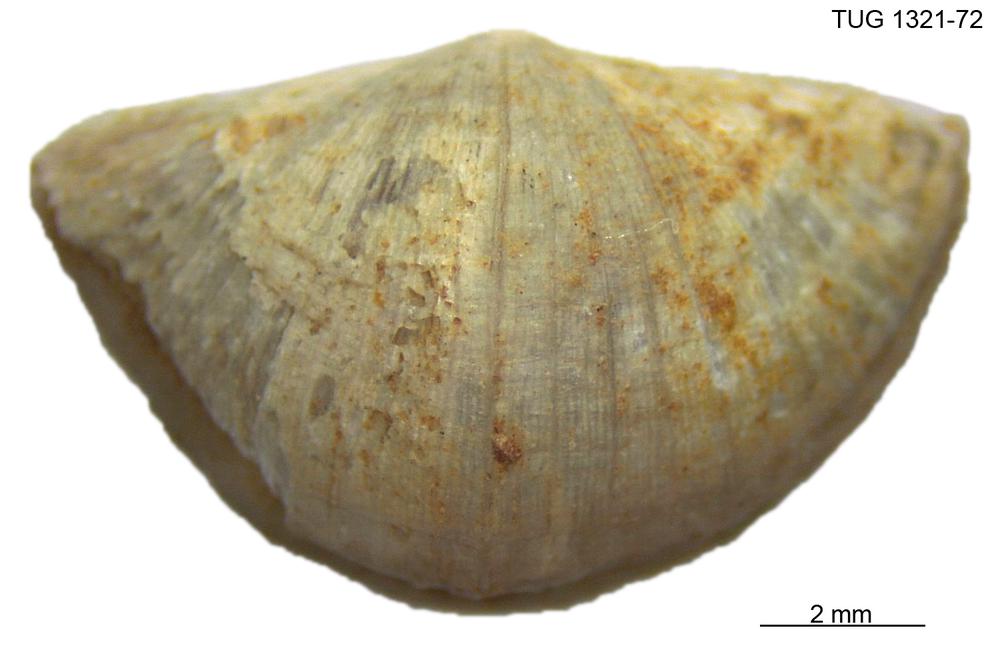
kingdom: Animalia
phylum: Brachiopoda
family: Sowerbyellidae
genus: Sowerbyella
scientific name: Sowerbyella liliifera
